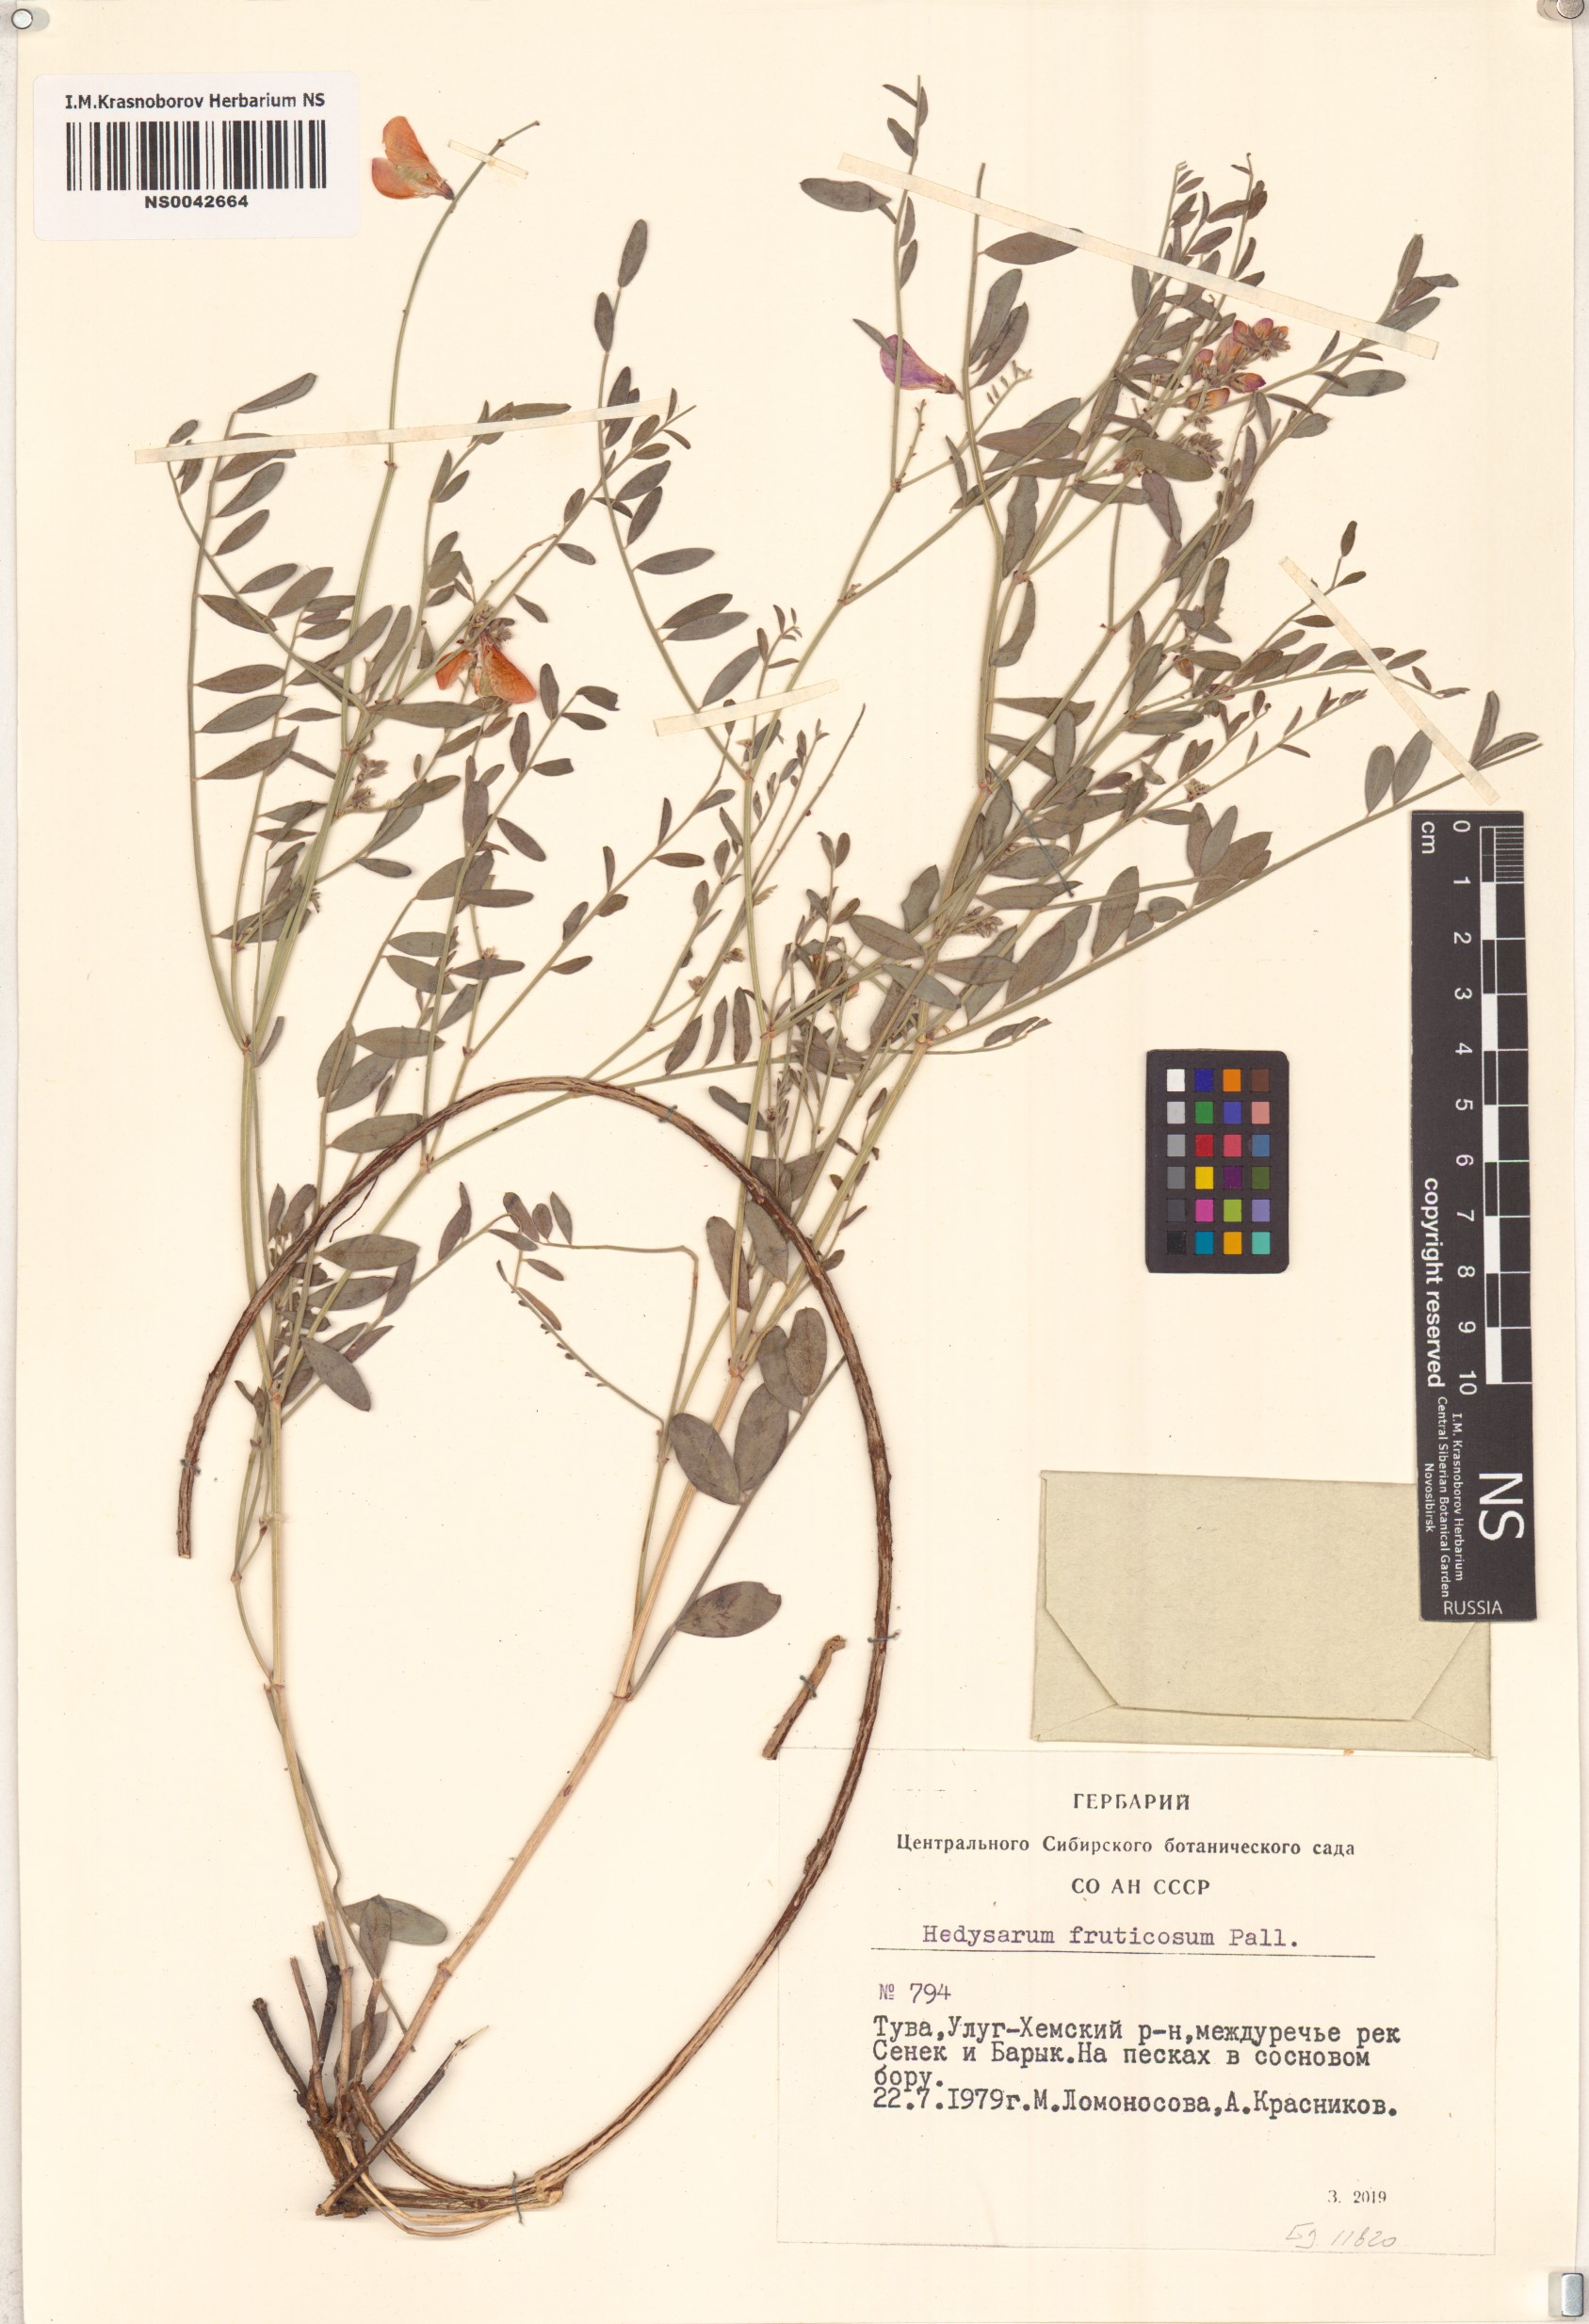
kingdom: Plantae
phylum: Tracheophyta
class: Magnoliopsida
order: Fabales
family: Fabaceae
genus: Corethrodendron
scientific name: Corethrodendron fruticosum
